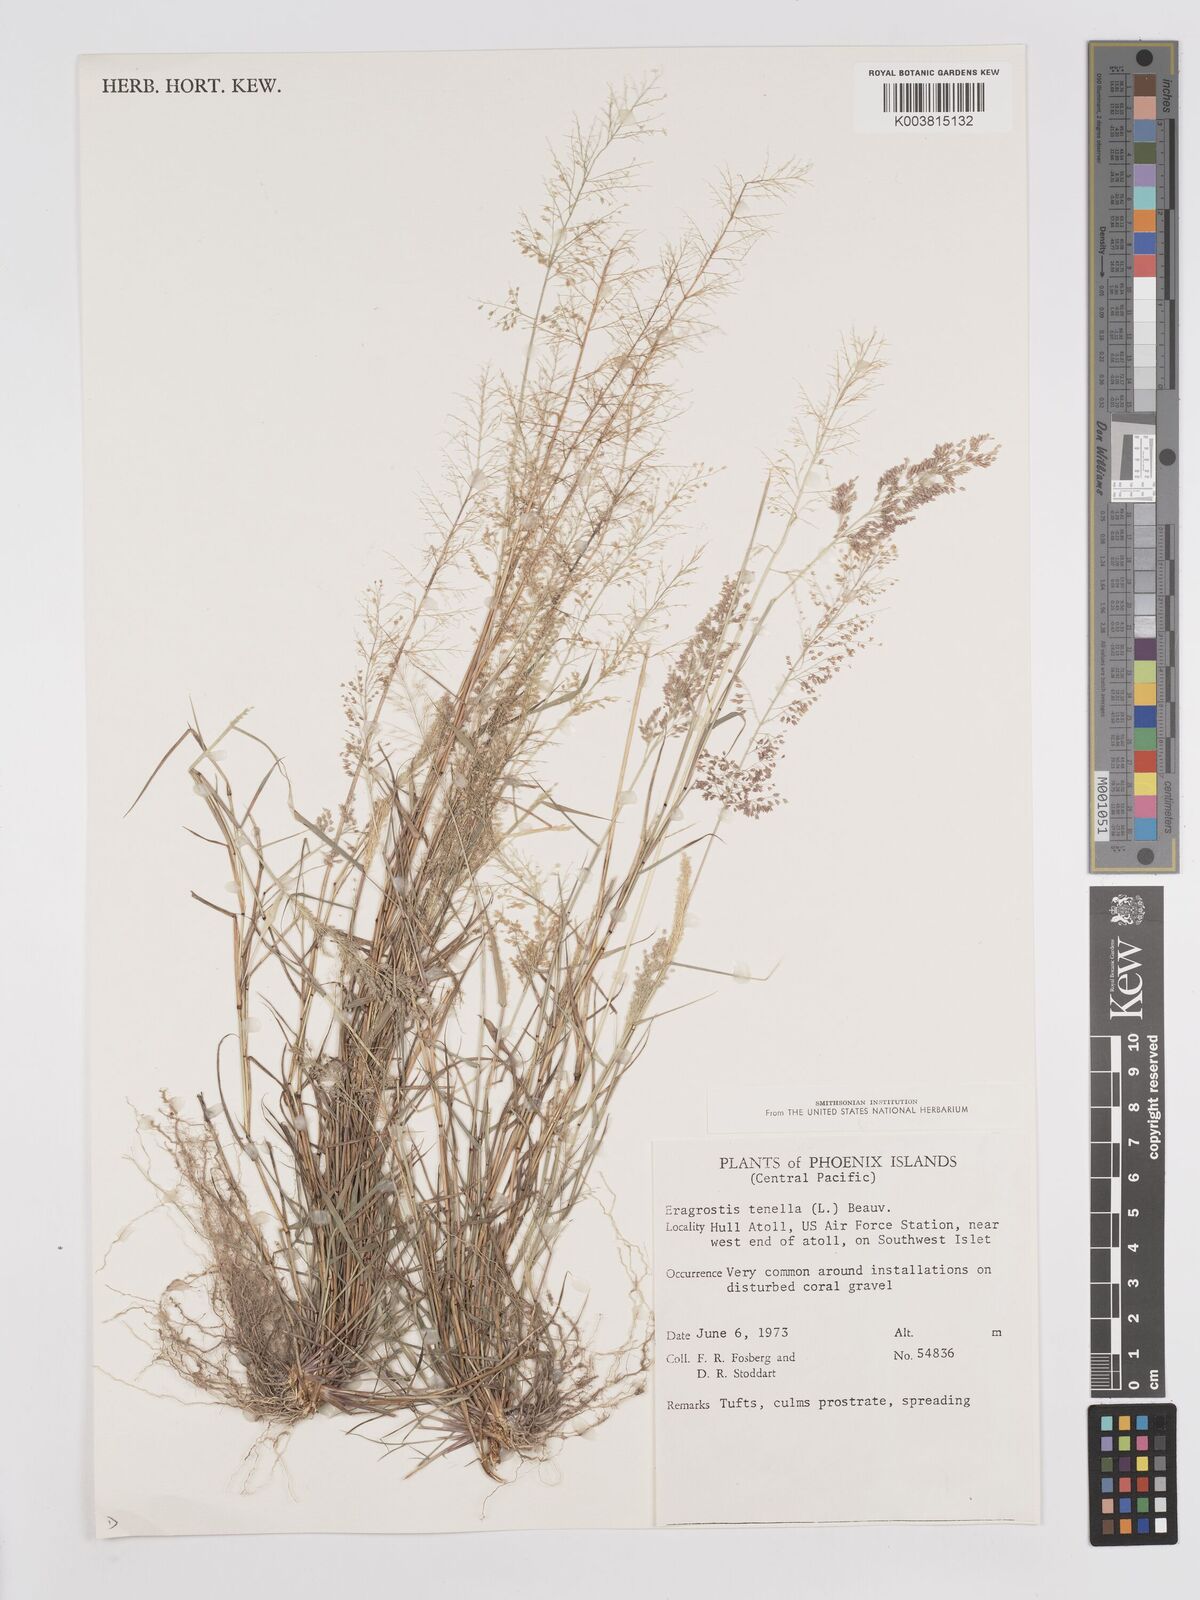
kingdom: Plantae
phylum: Tracheophyta
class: Liliopsida
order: Poales
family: Poaceae
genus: Eragrostis
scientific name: Eragrostis tenella
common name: Japanese lovegrass
